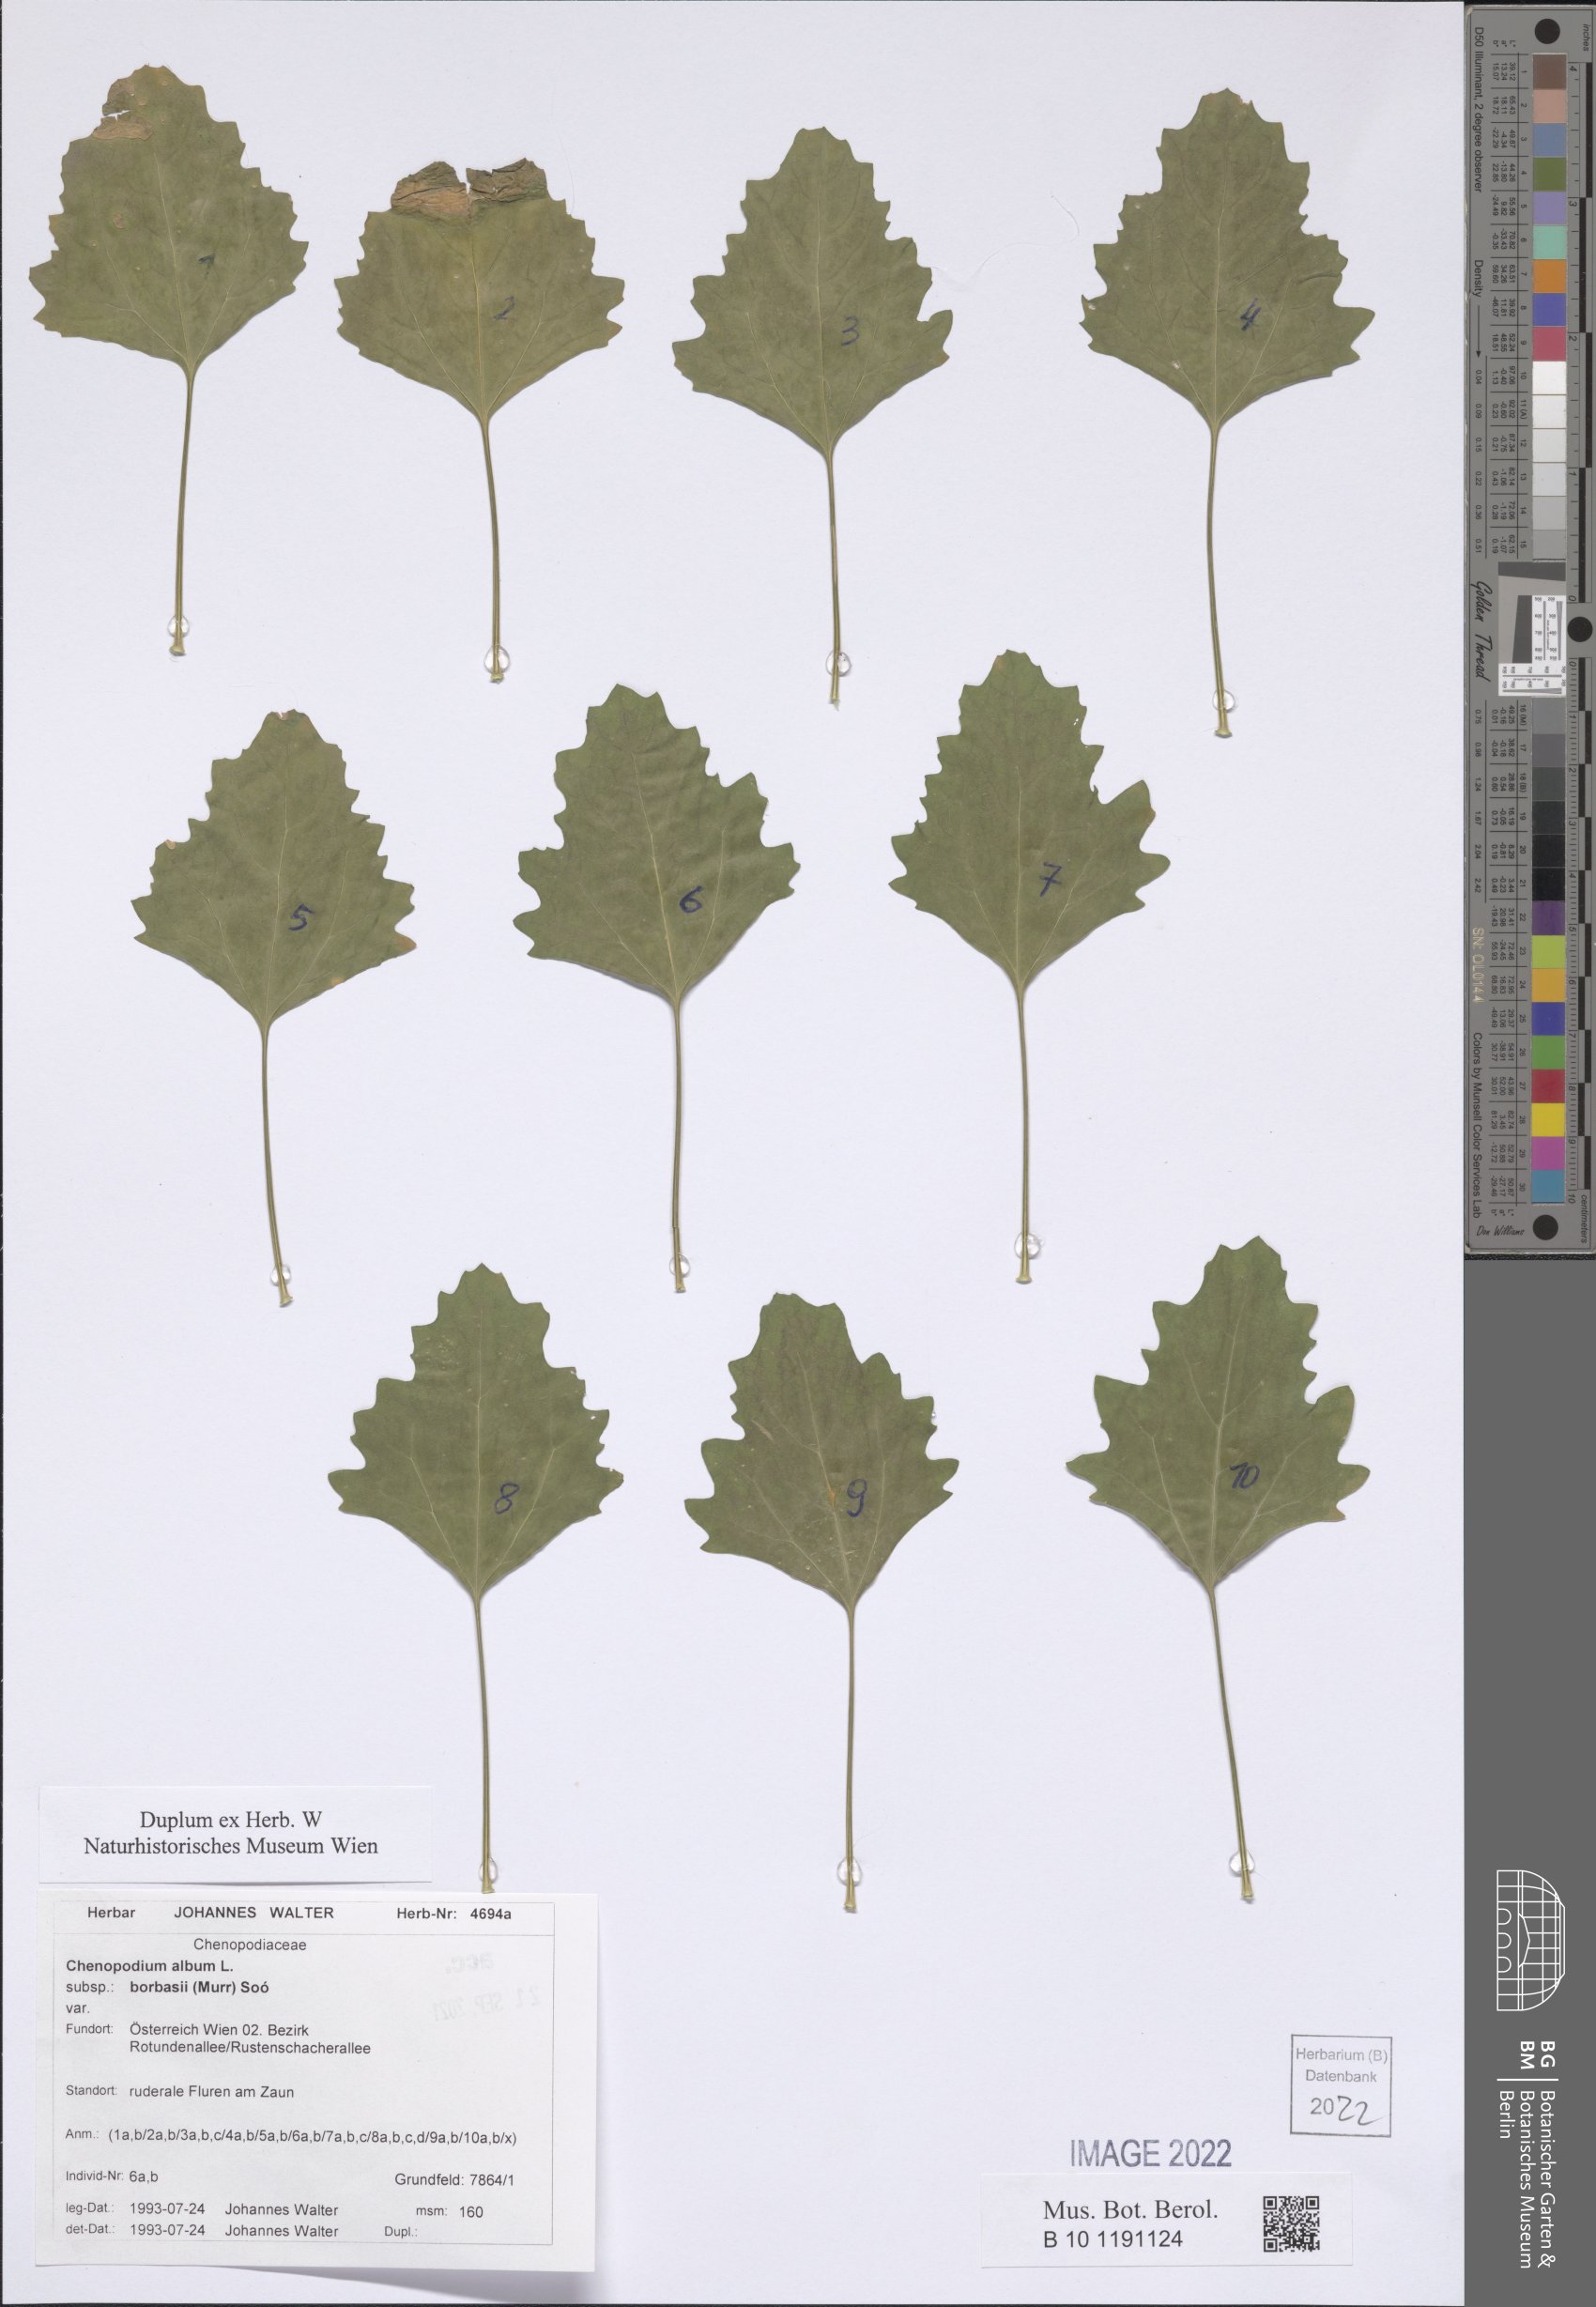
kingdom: Plantae
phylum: Tracheophyta
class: Magnoliopsida
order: Caryophyllales
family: Amaranthaceae
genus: Chenopodium
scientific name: Chenopodium borbasii
